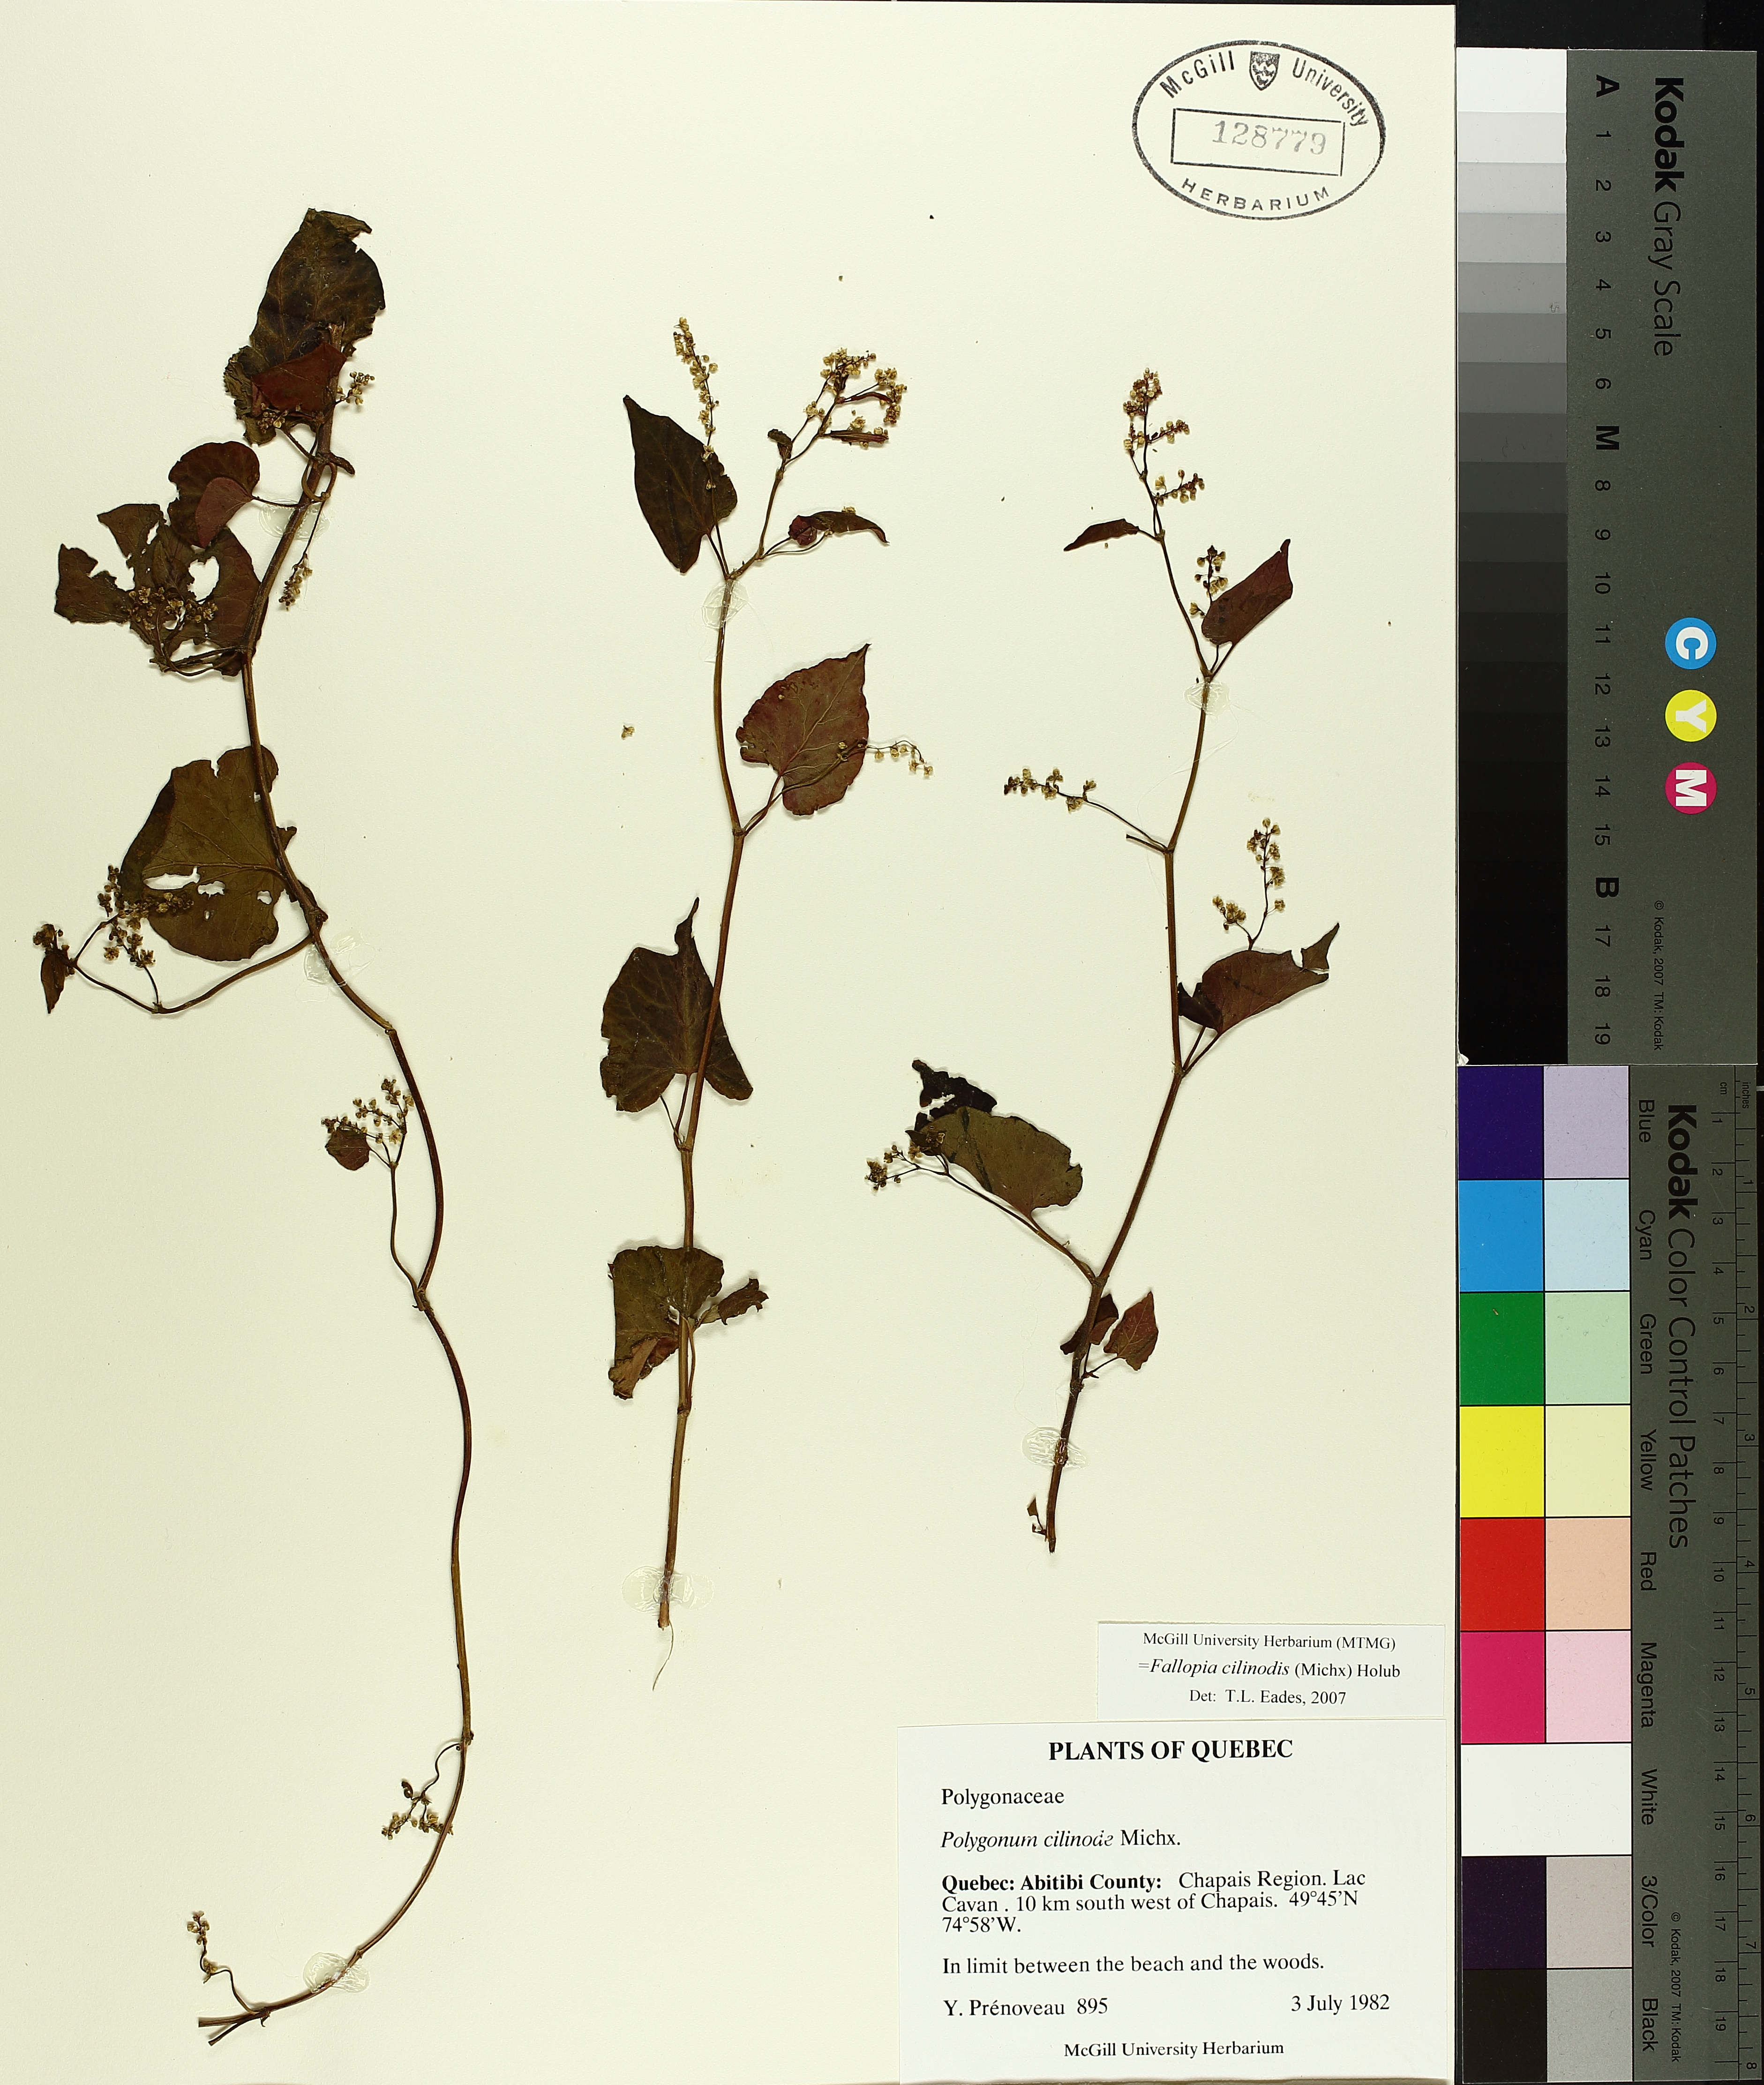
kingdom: Plantae
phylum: Tracheophyta
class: Magnoliopsida
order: Caryophyllales
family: Polygonaceae
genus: Parogonum
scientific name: Parogonum ciliinode
